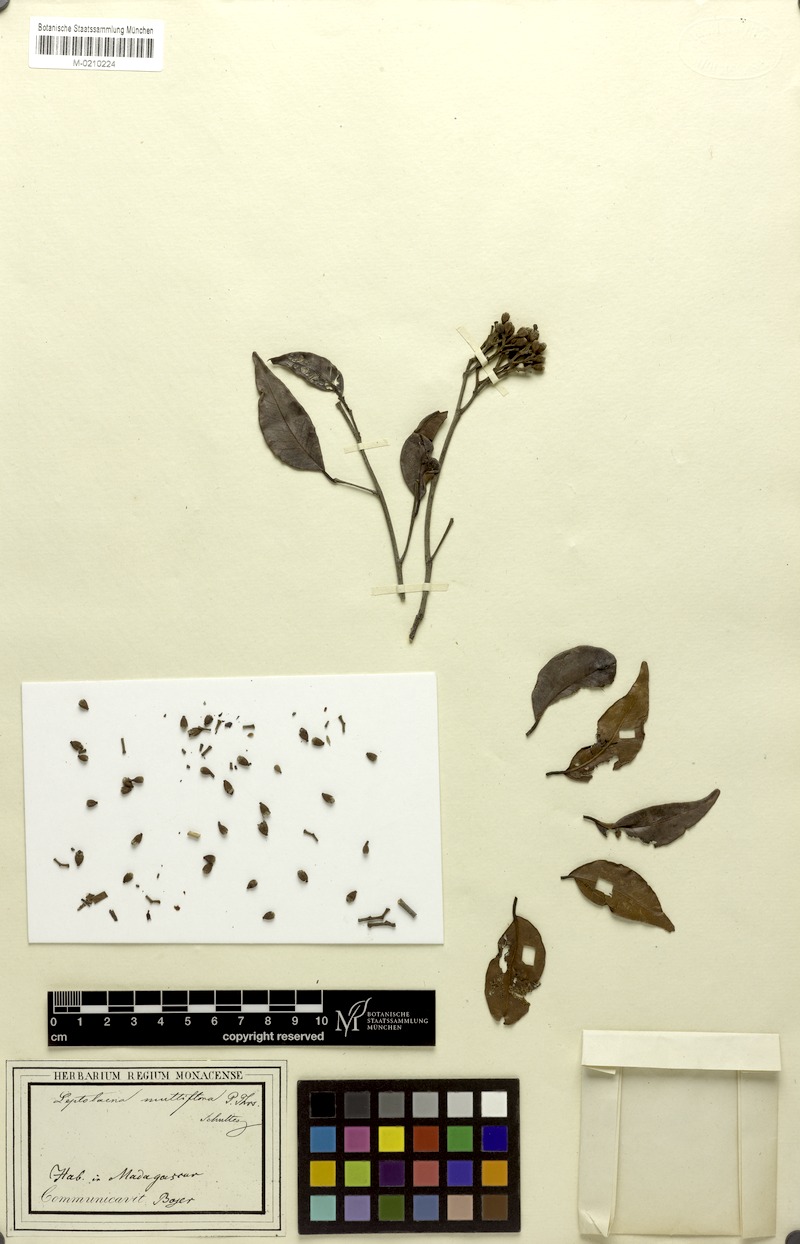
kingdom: Plantae
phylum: Tracheophyta
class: Magnoliopsida
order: Malvales
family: Sarcolaenaceae
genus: Leptolaena
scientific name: Leptolaena multiflora
